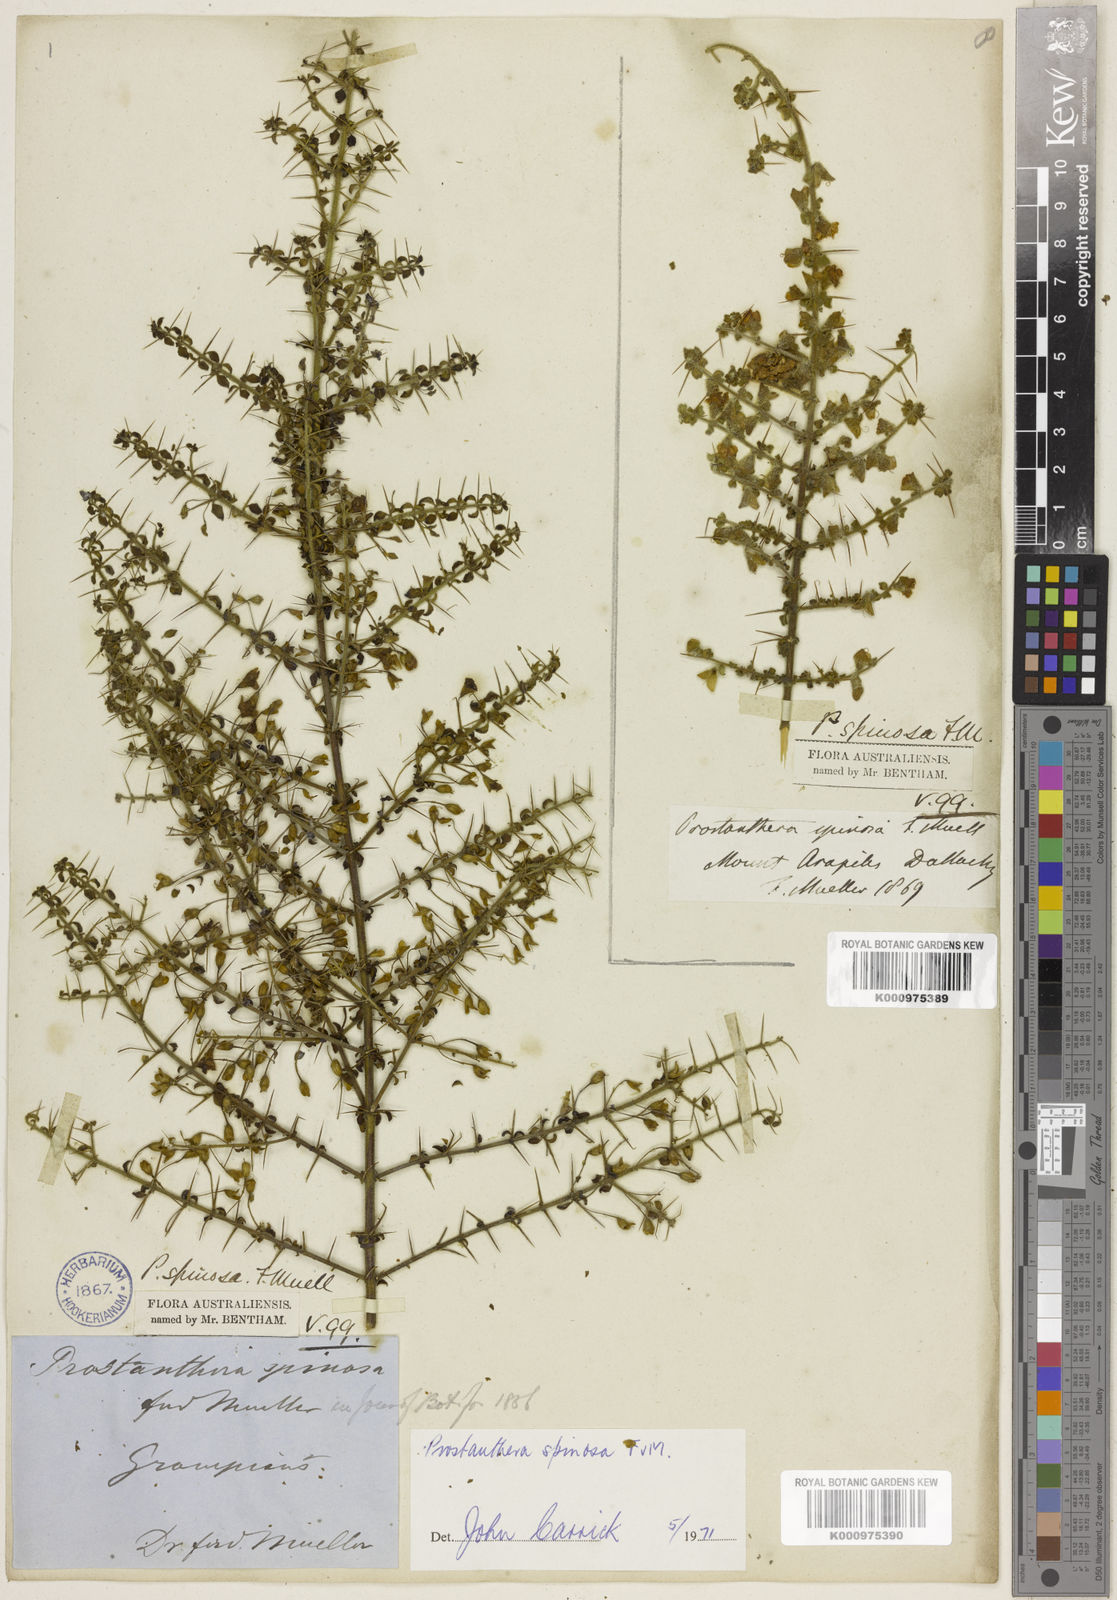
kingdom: Plantae
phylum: Tracheophyta
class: Magnoliopsida
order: Lamiales
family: Lamiaceae
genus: Prostanthera
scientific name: Prostanthera spinosa
